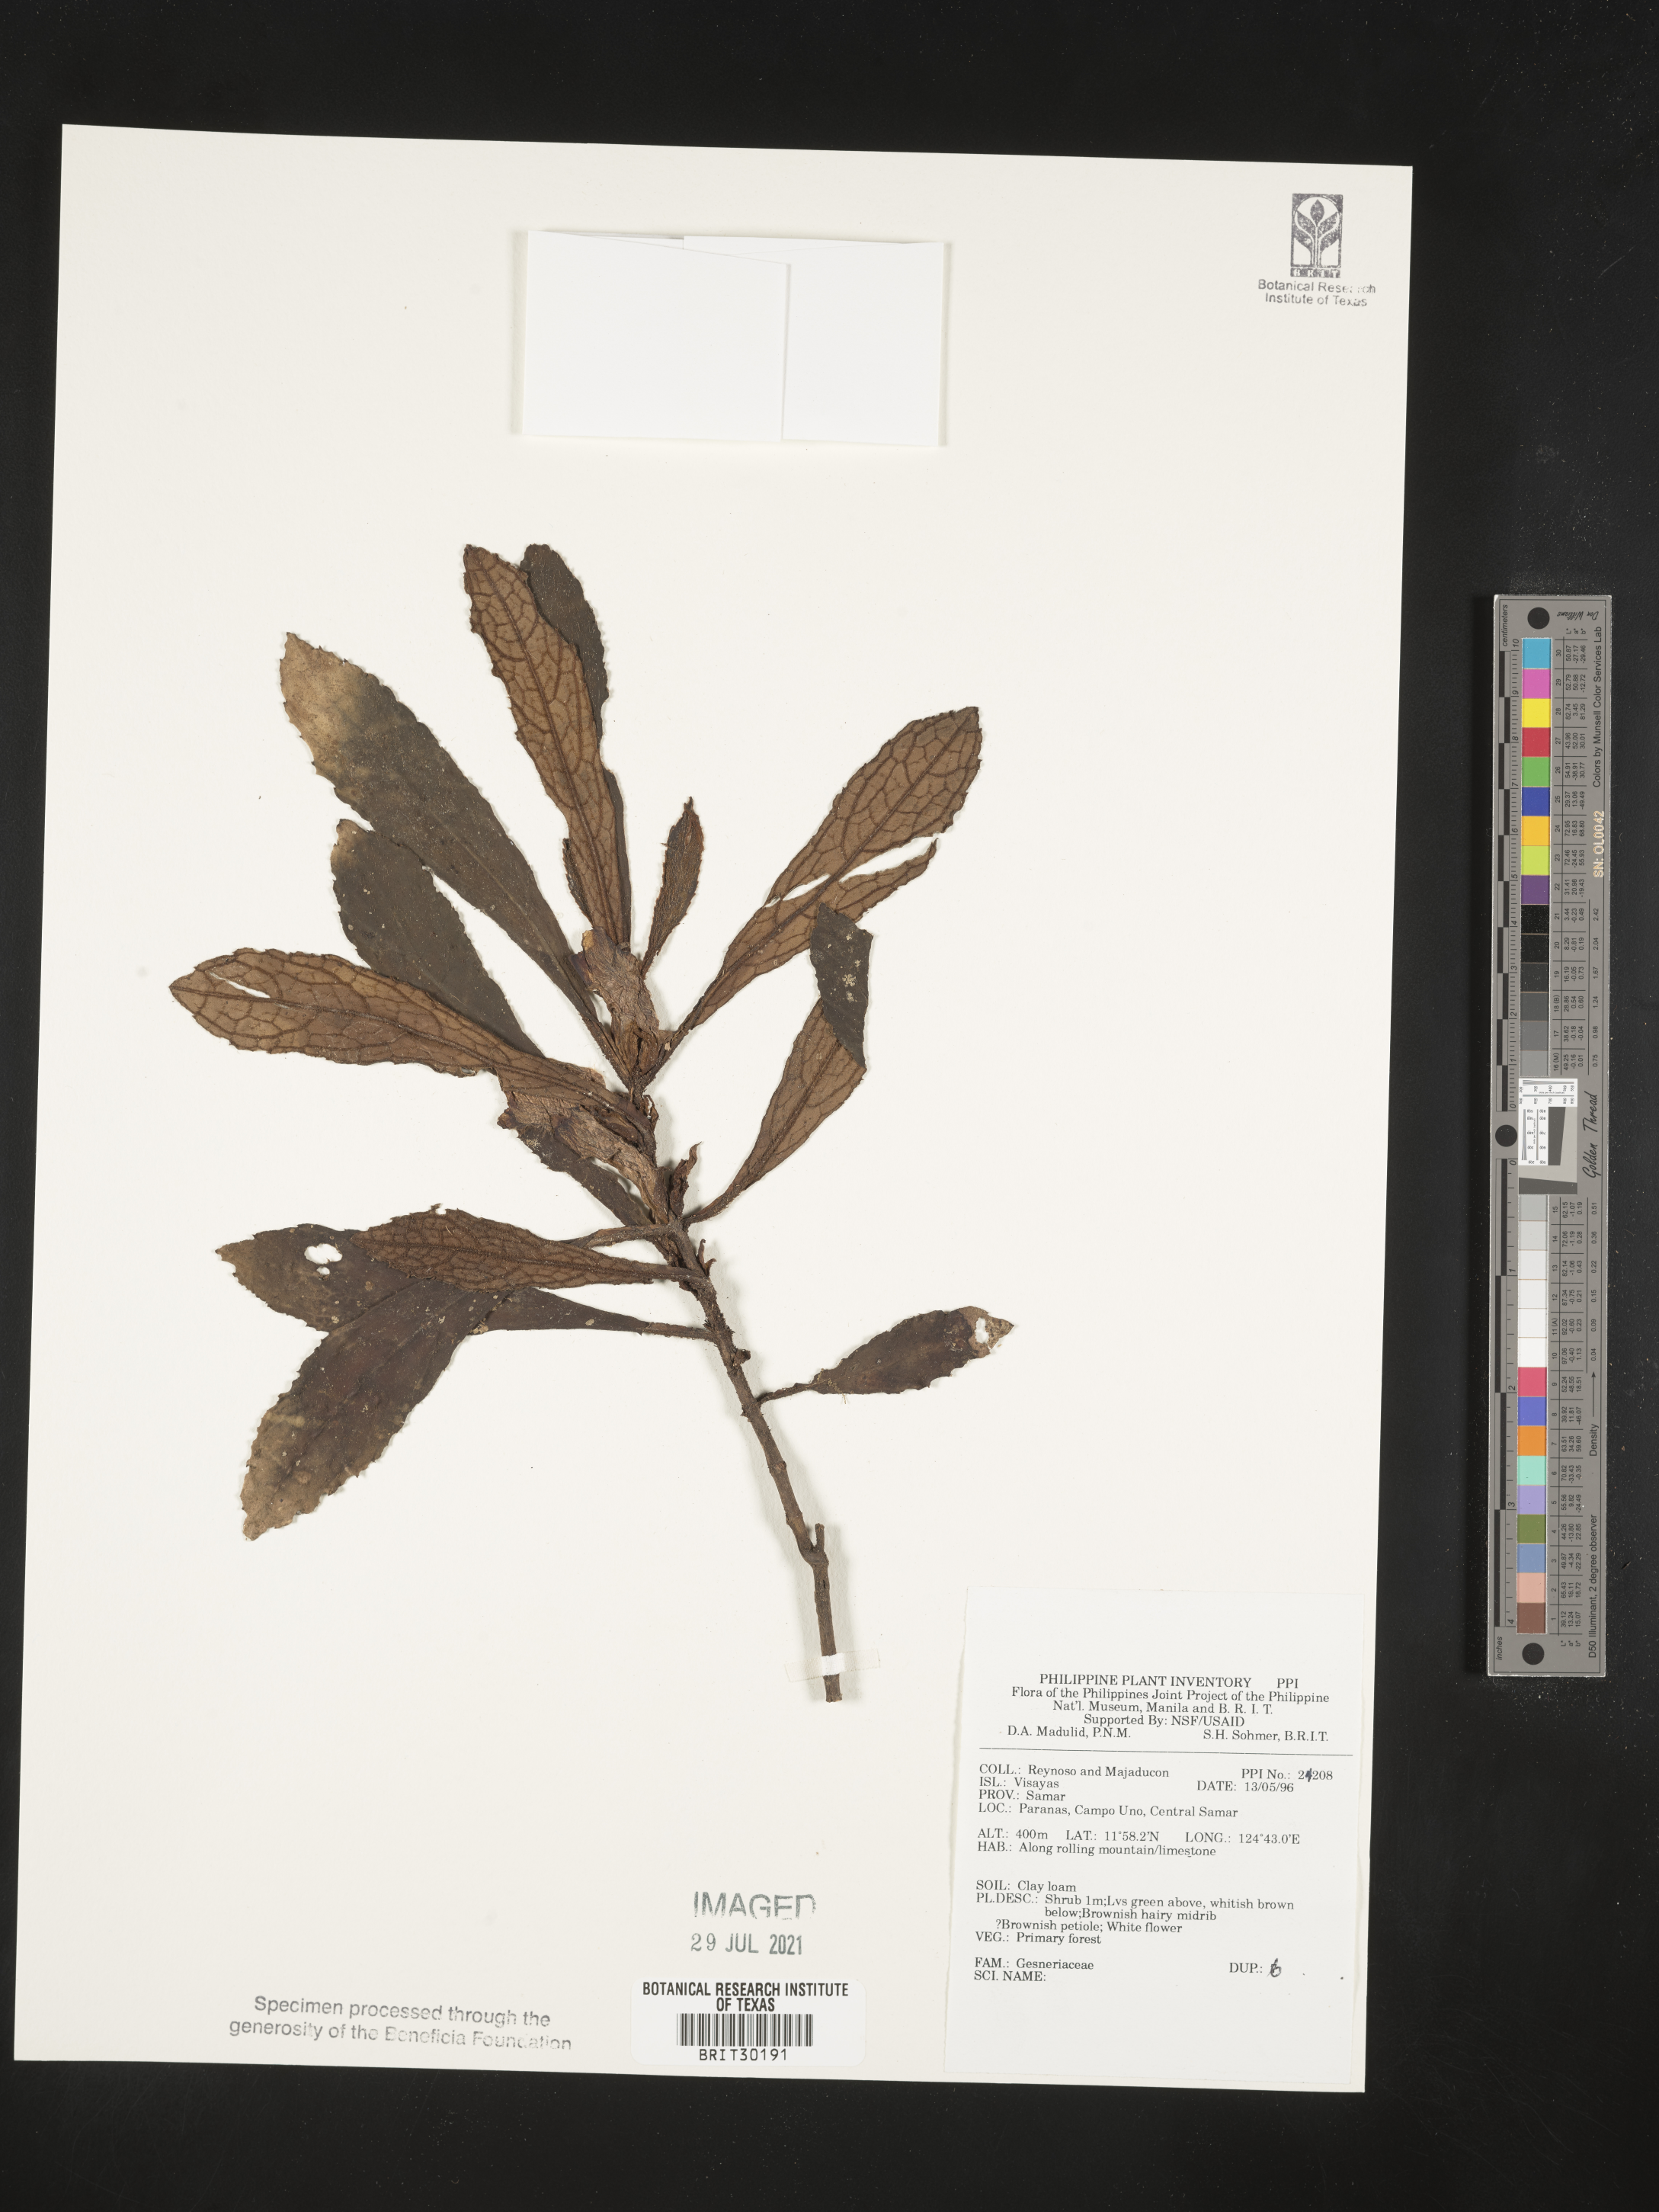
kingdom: Plantae
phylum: Tracheophyta
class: Magnoliopsida
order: Lamiales
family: Gesneriaceae
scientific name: Gesneriaceae
